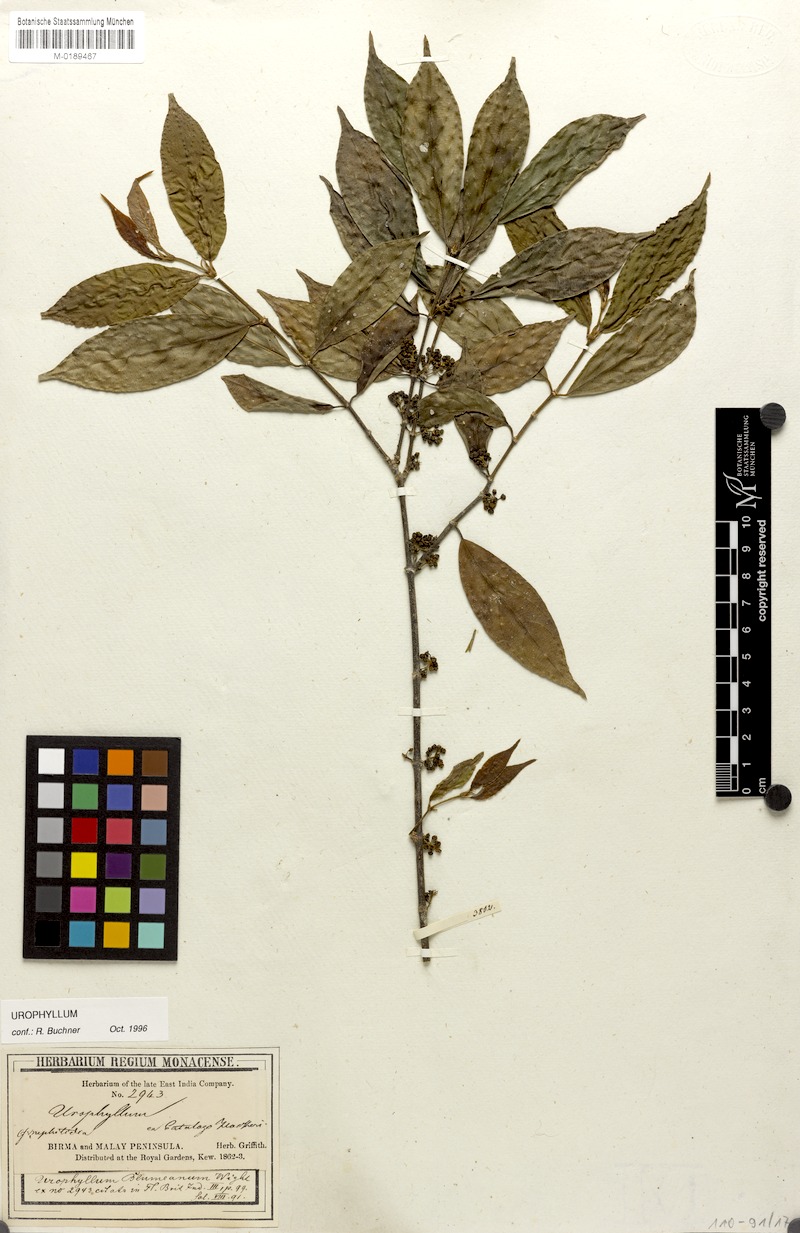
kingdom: Plantae
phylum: Tracheophyta
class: Magnoliopsida
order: Gentianales
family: Rubiaceae
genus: Urophyllum
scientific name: Urophyllum arboreum
